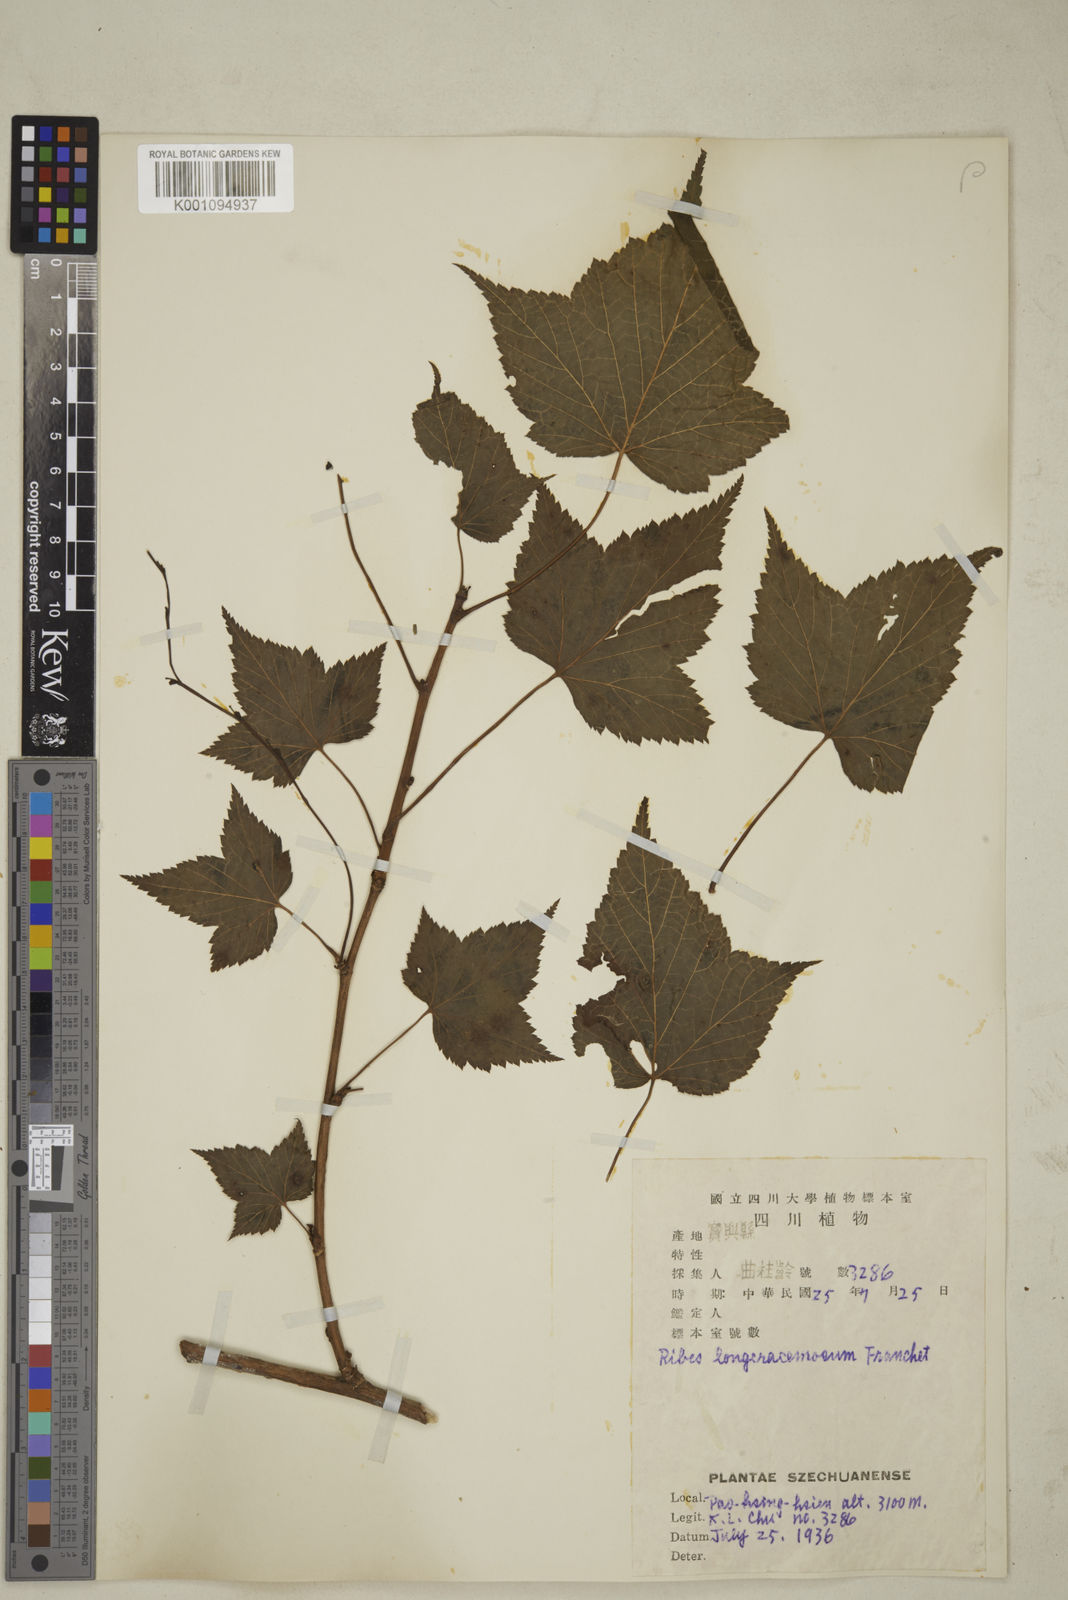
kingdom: Plantae
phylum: Tracheophyta
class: Magnoliopsida
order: Saxifragales
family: Grossulariaceae
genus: Ribes
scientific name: Ribes longeracemosum
